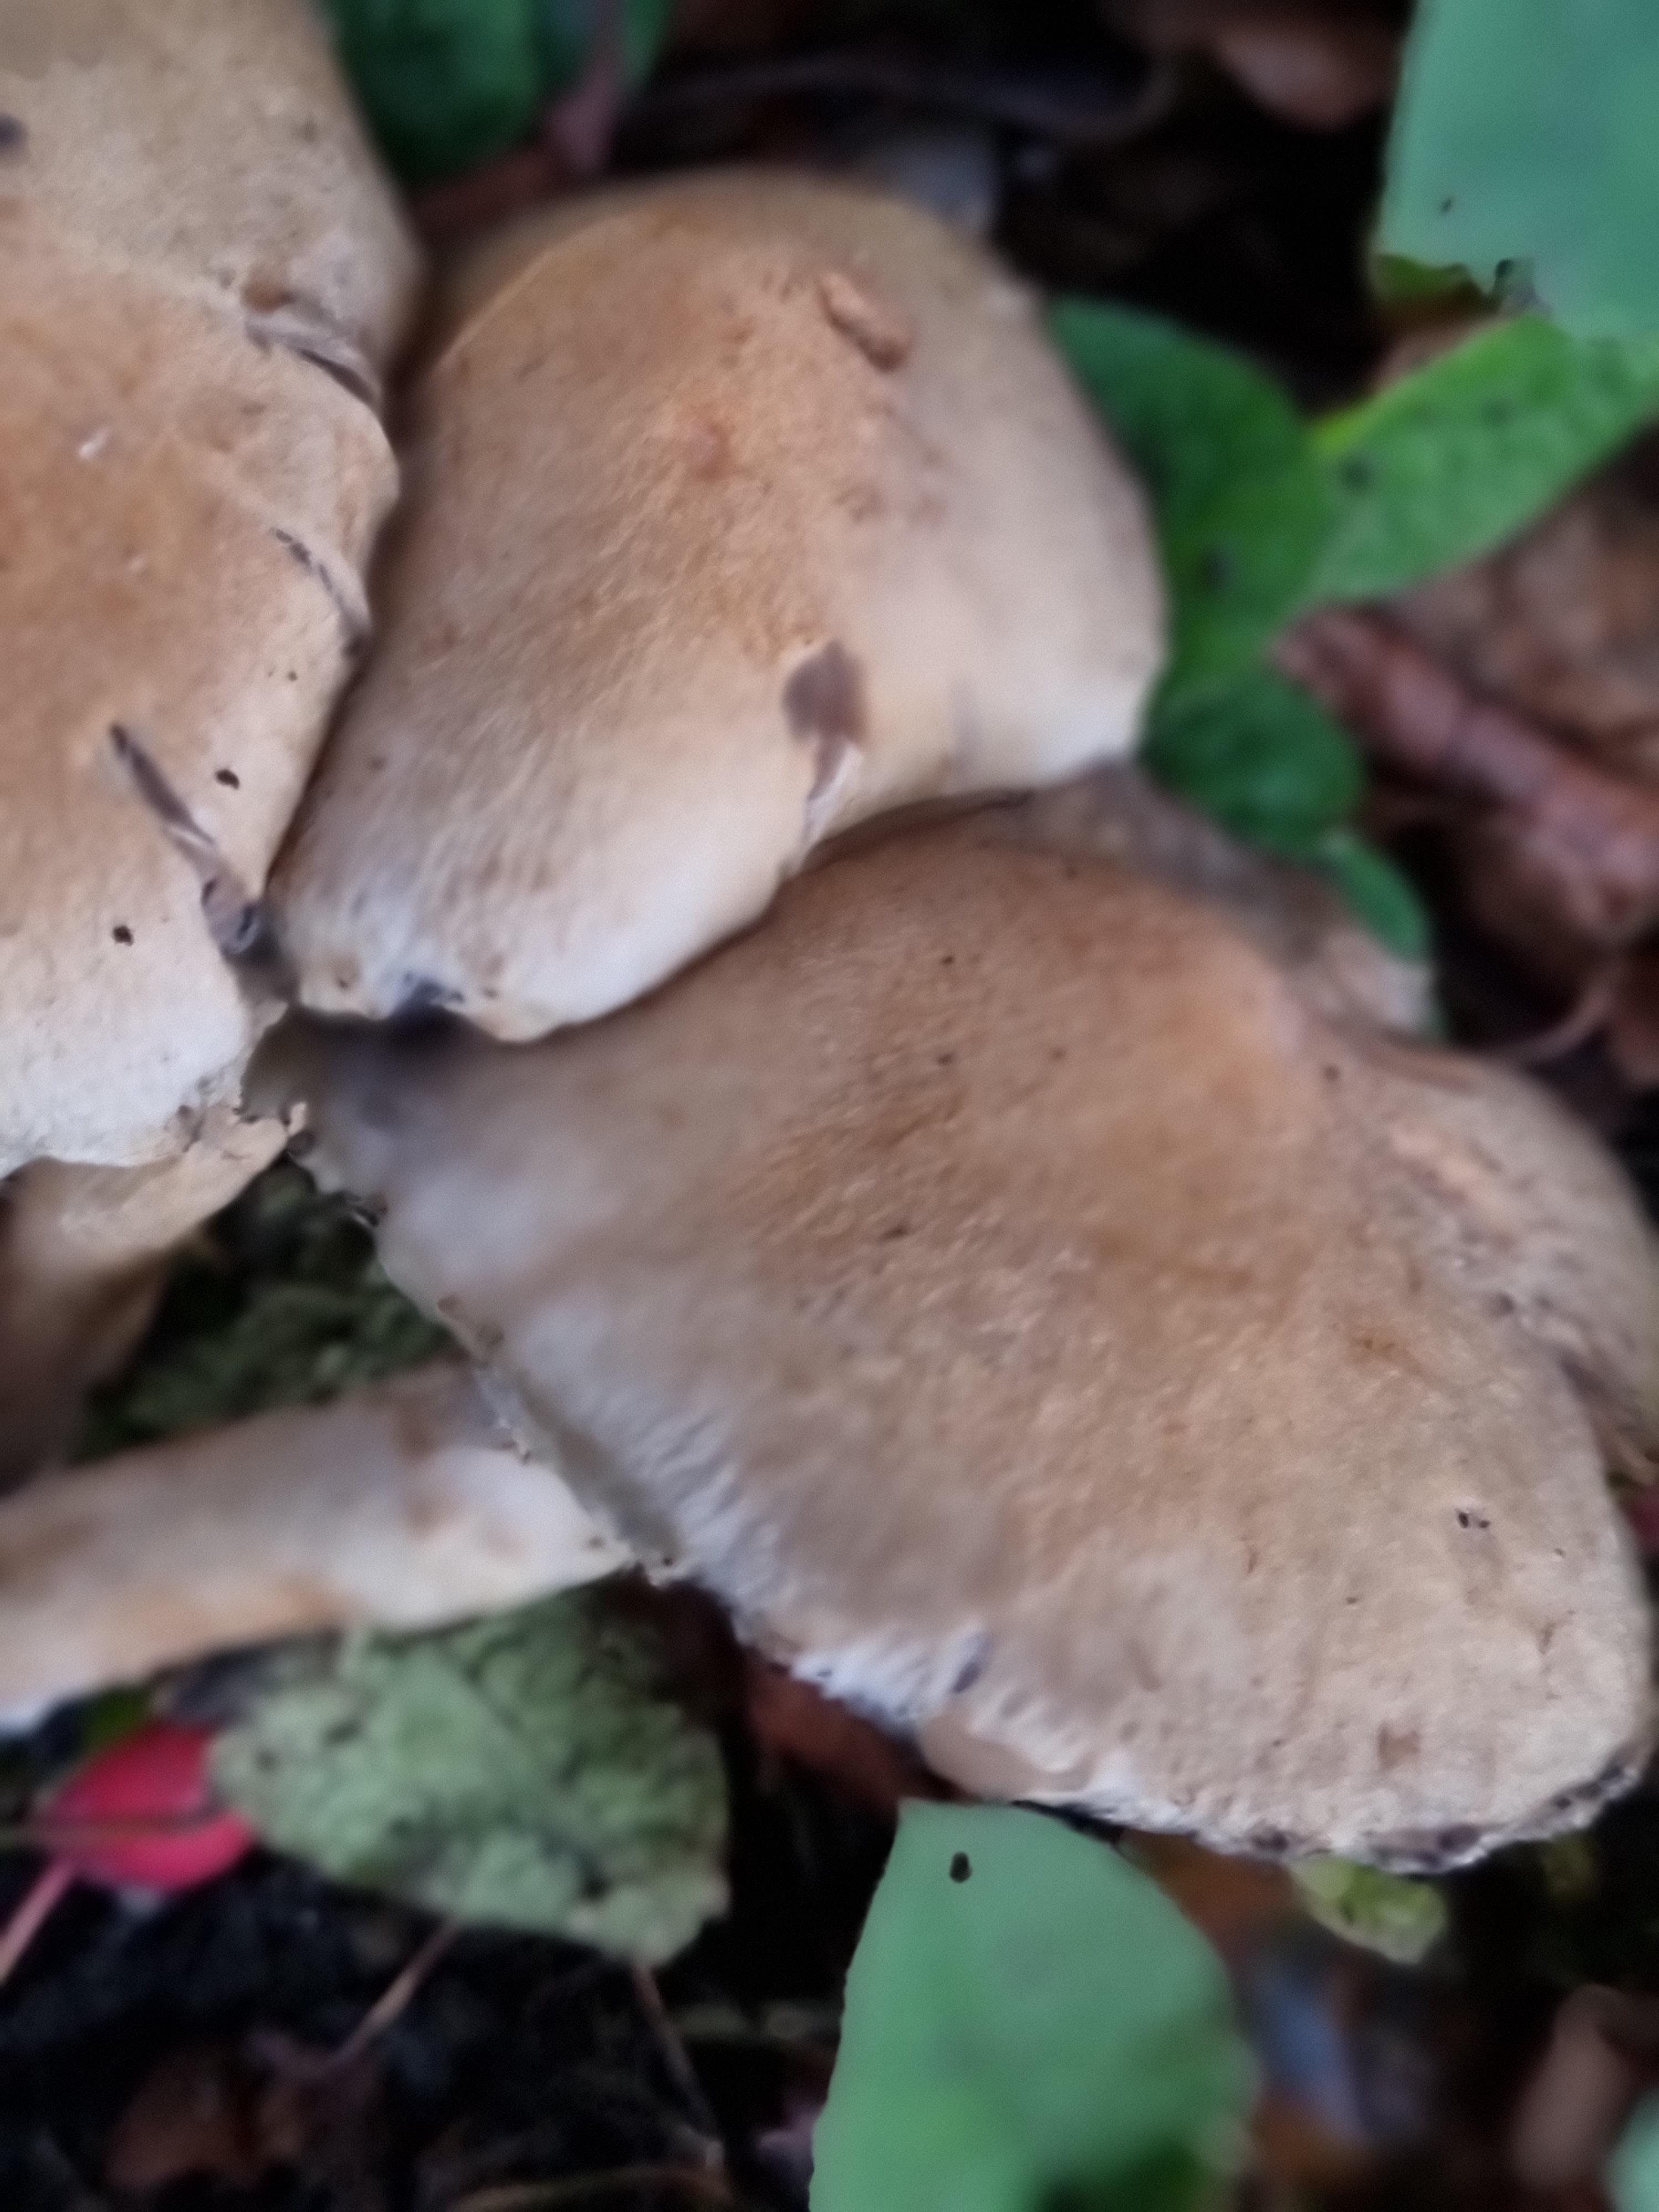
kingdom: Fungi
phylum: Basidiomycota
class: Agaricomycetes
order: Agaricales
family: Psathyrellaceae
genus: Lacrymaria
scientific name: Lacrymaria lacrymabunda
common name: grædende mørkhat
